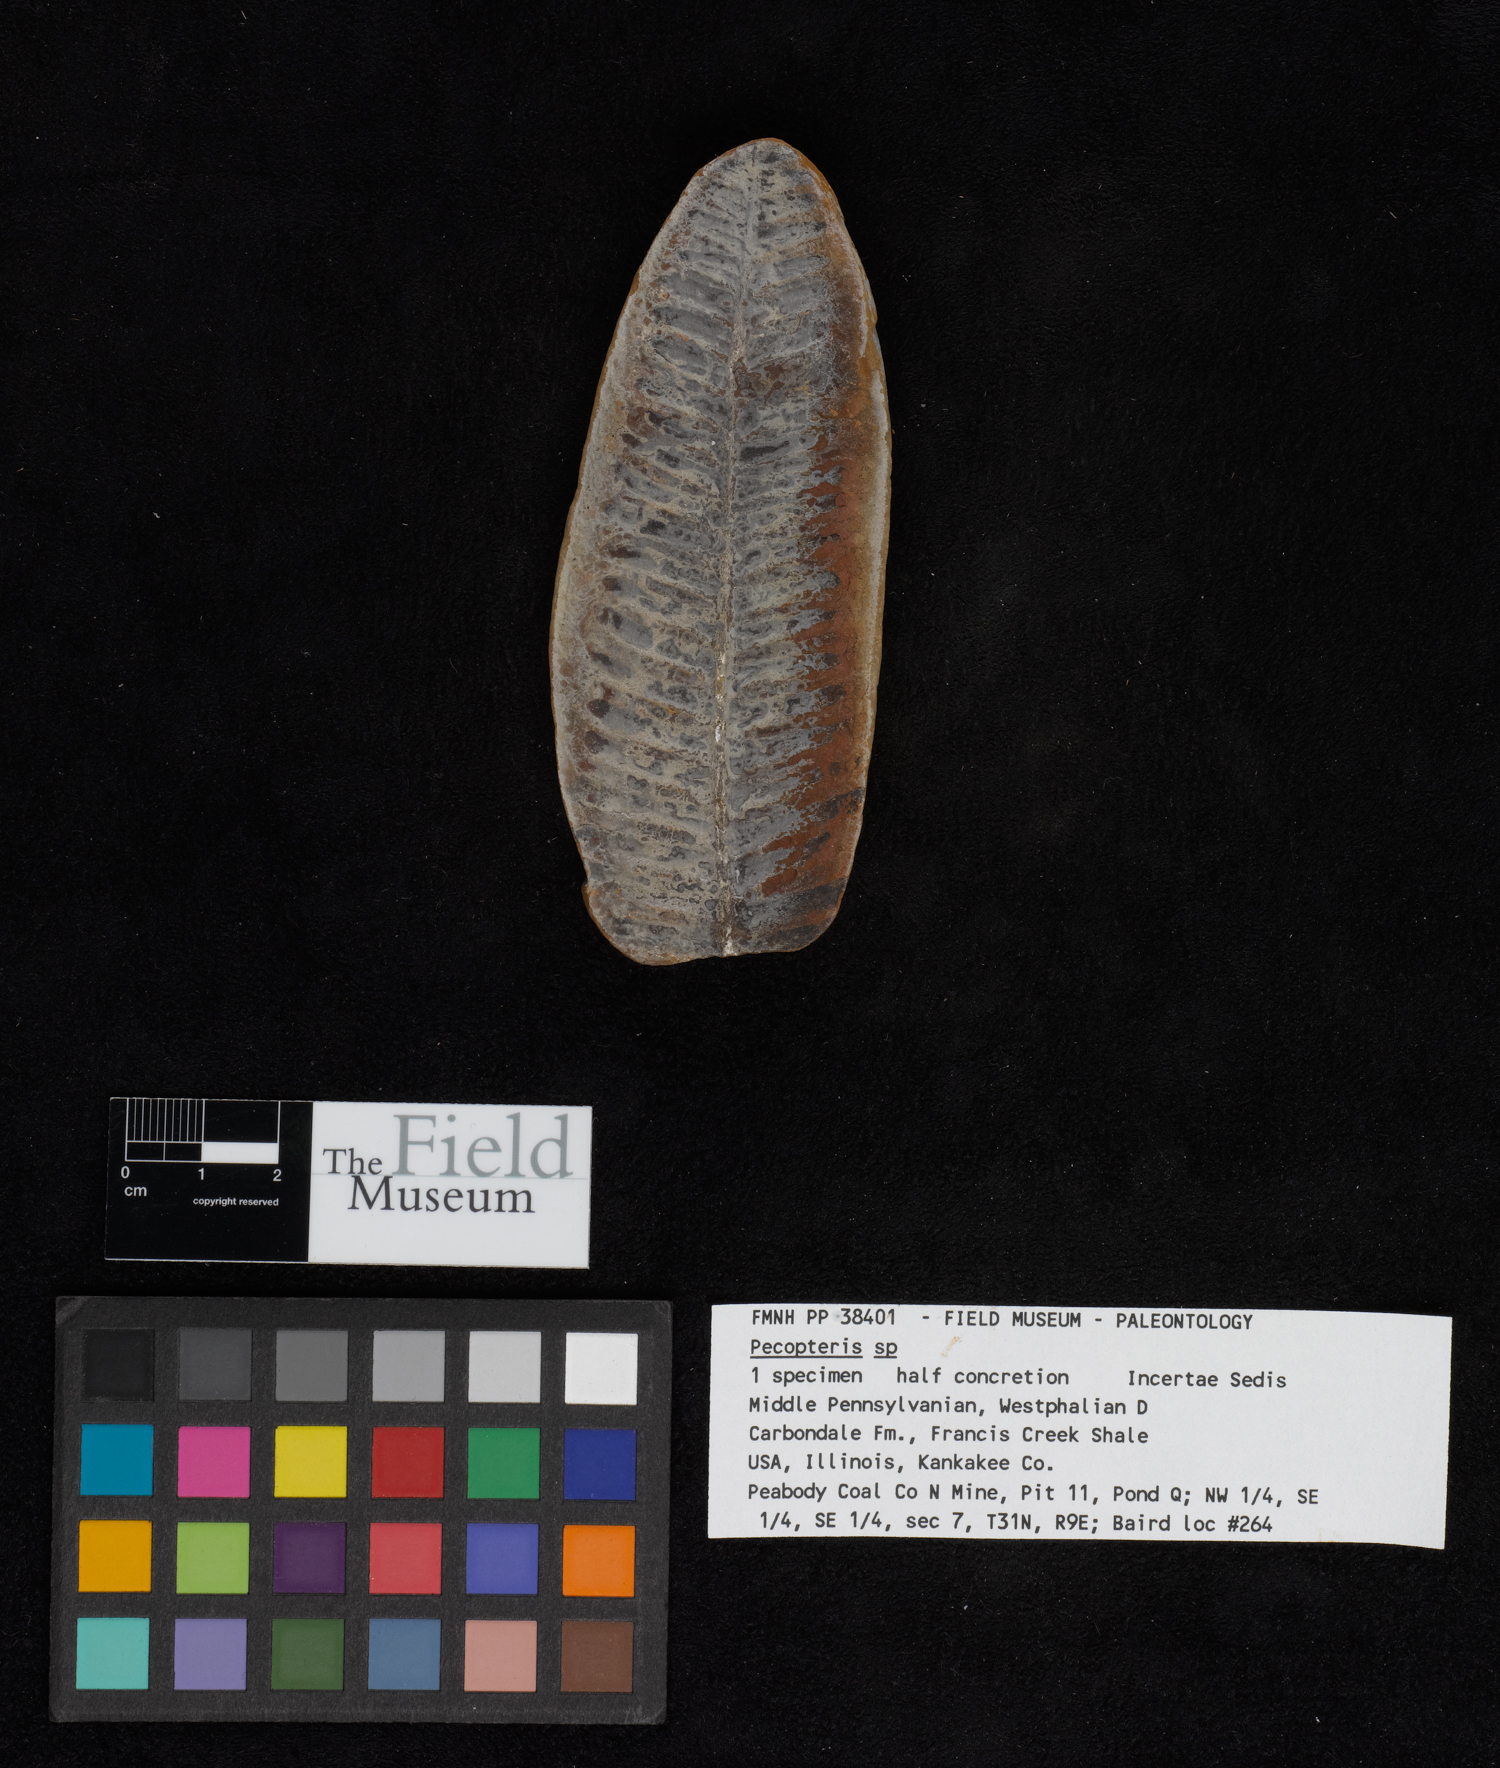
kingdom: Plantae
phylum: Tracheophyta
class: Polypodiopsida
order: Marattiales
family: Asterothecaceae
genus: Pecopteris
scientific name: Pecopteris
